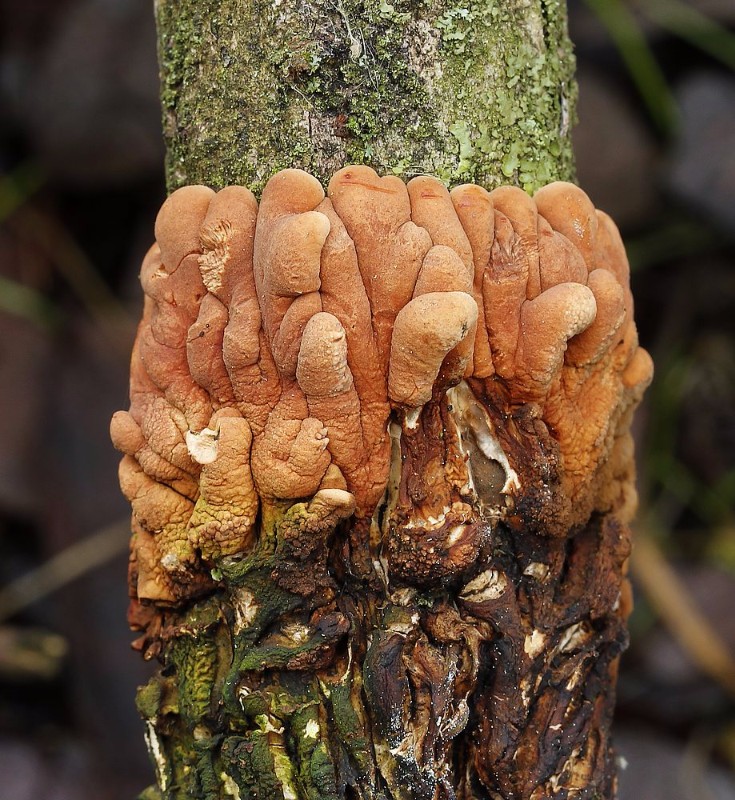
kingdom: Fungi
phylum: Ascomycota
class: Sordariomycetes
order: Hypocreales
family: Hypocreaceae
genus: Hypocreopsis
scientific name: Hypocreopsis lichenoides
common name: pilfinger
